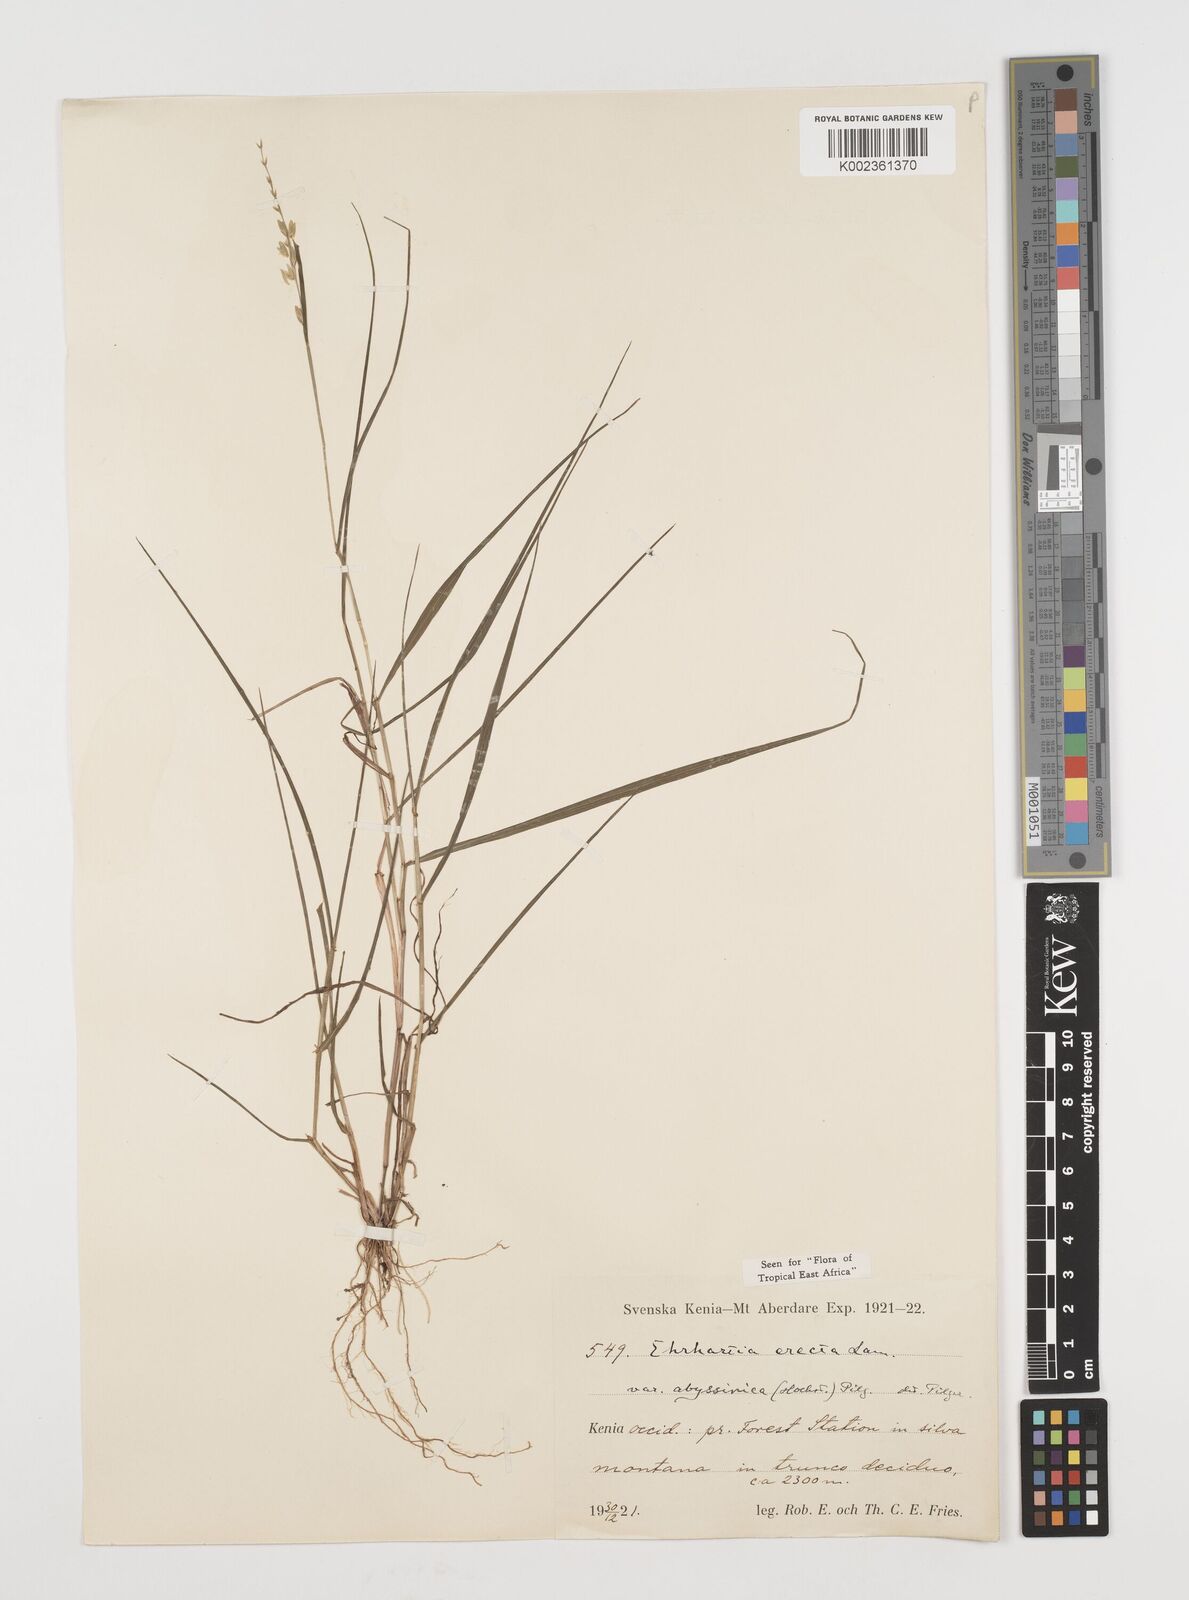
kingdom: Plantae
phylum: Tracheophyta
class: Liliopsida
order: Poales
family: Poaceae
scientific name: Poaceae
